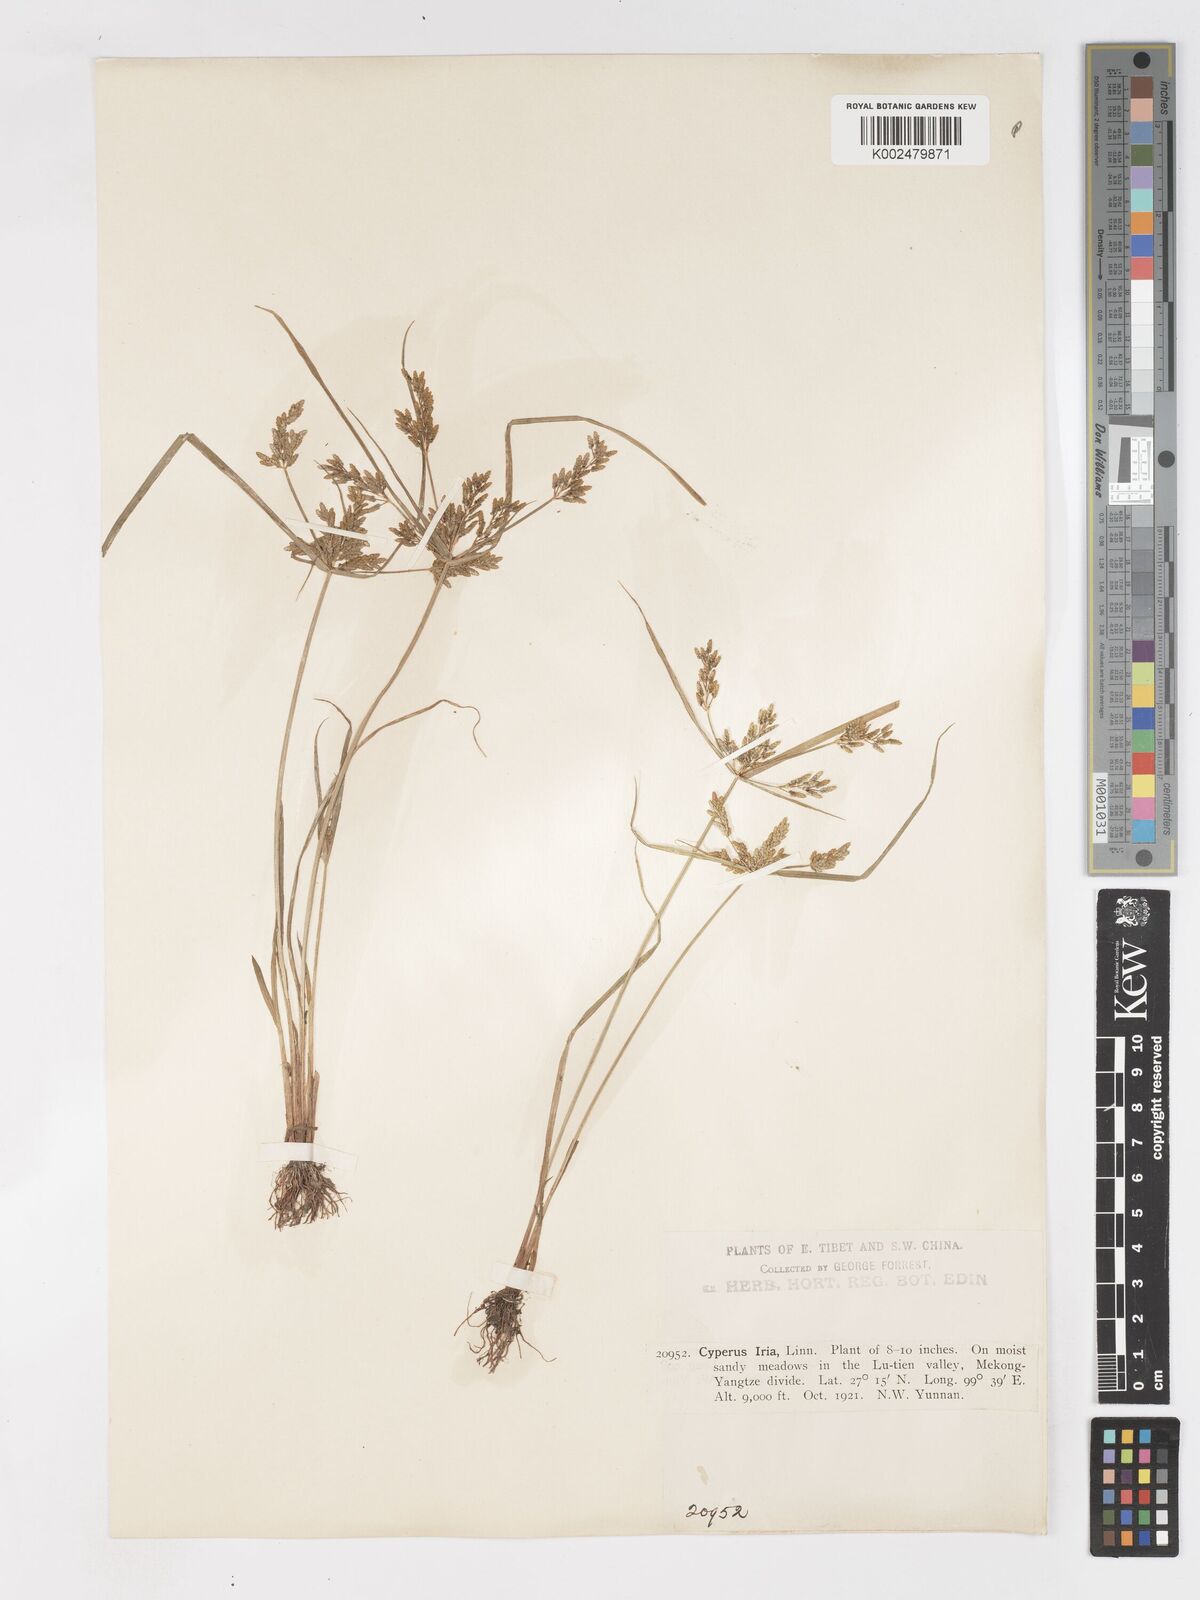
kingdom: Plantae
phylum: Tracheophyta
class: Liliopsida
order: Poales
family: Cyperaceae
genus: Cyperus
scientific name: Cyperus iria
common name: Ricefield flatsedge
